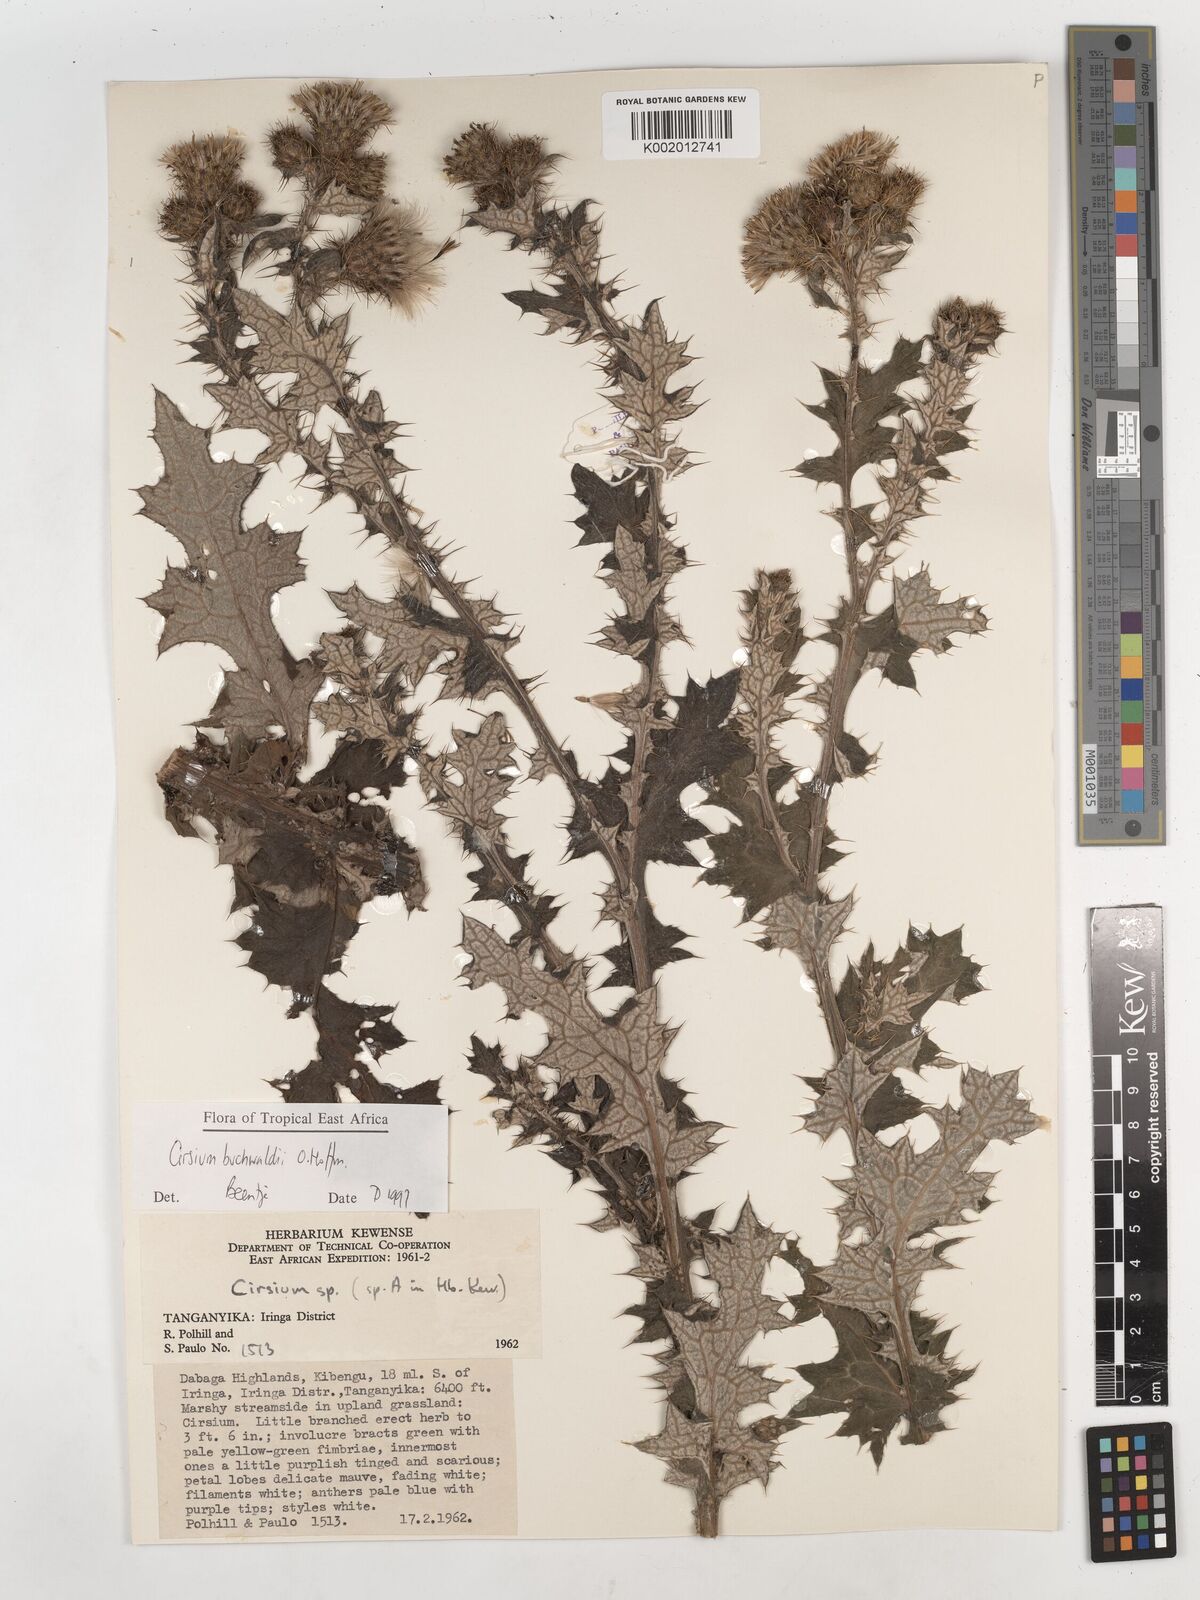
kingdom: Plantae
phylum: Tracheophyta
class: Magnoliopsida
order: Asterales
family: Asteraceae
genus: Cirsium
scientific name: Cirsium buchwaldii
